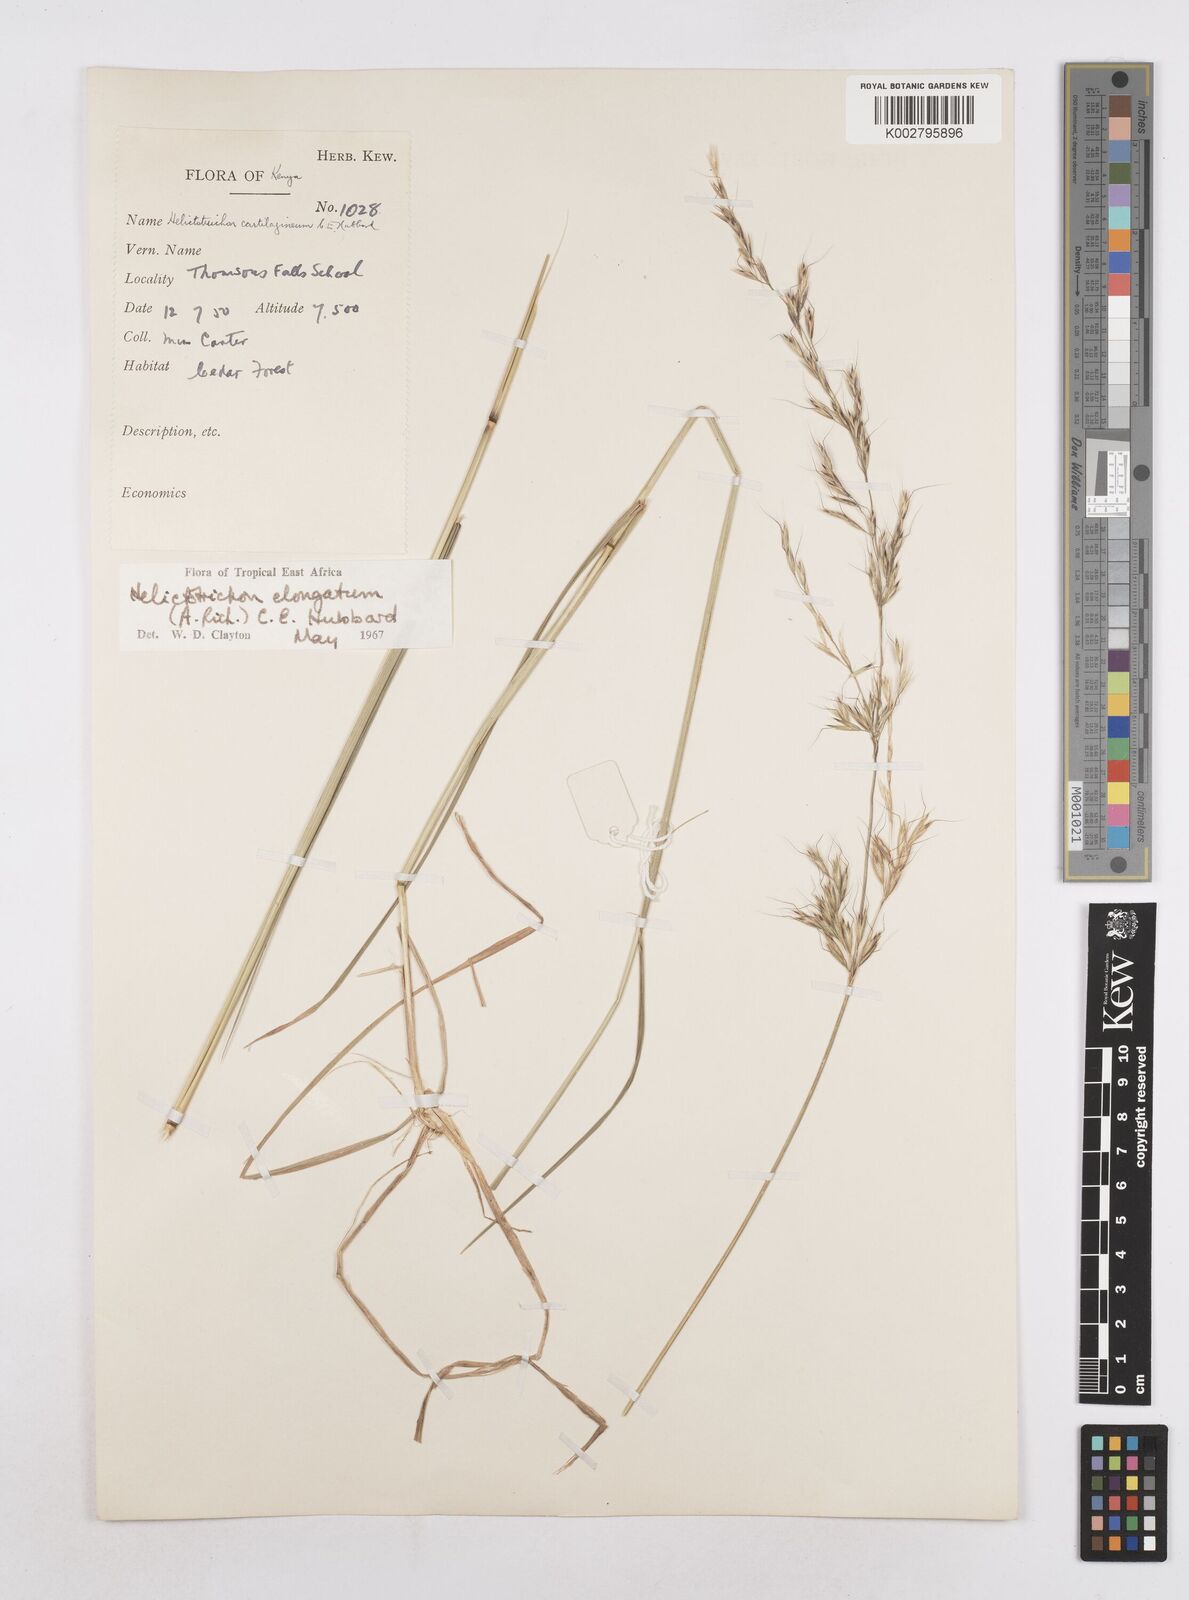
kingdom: Plantae
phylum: Tracheophyta
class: Liliopsida
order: Poales
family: Poaceae
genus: Trisetopsis
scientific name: Trisetopsis elongata
